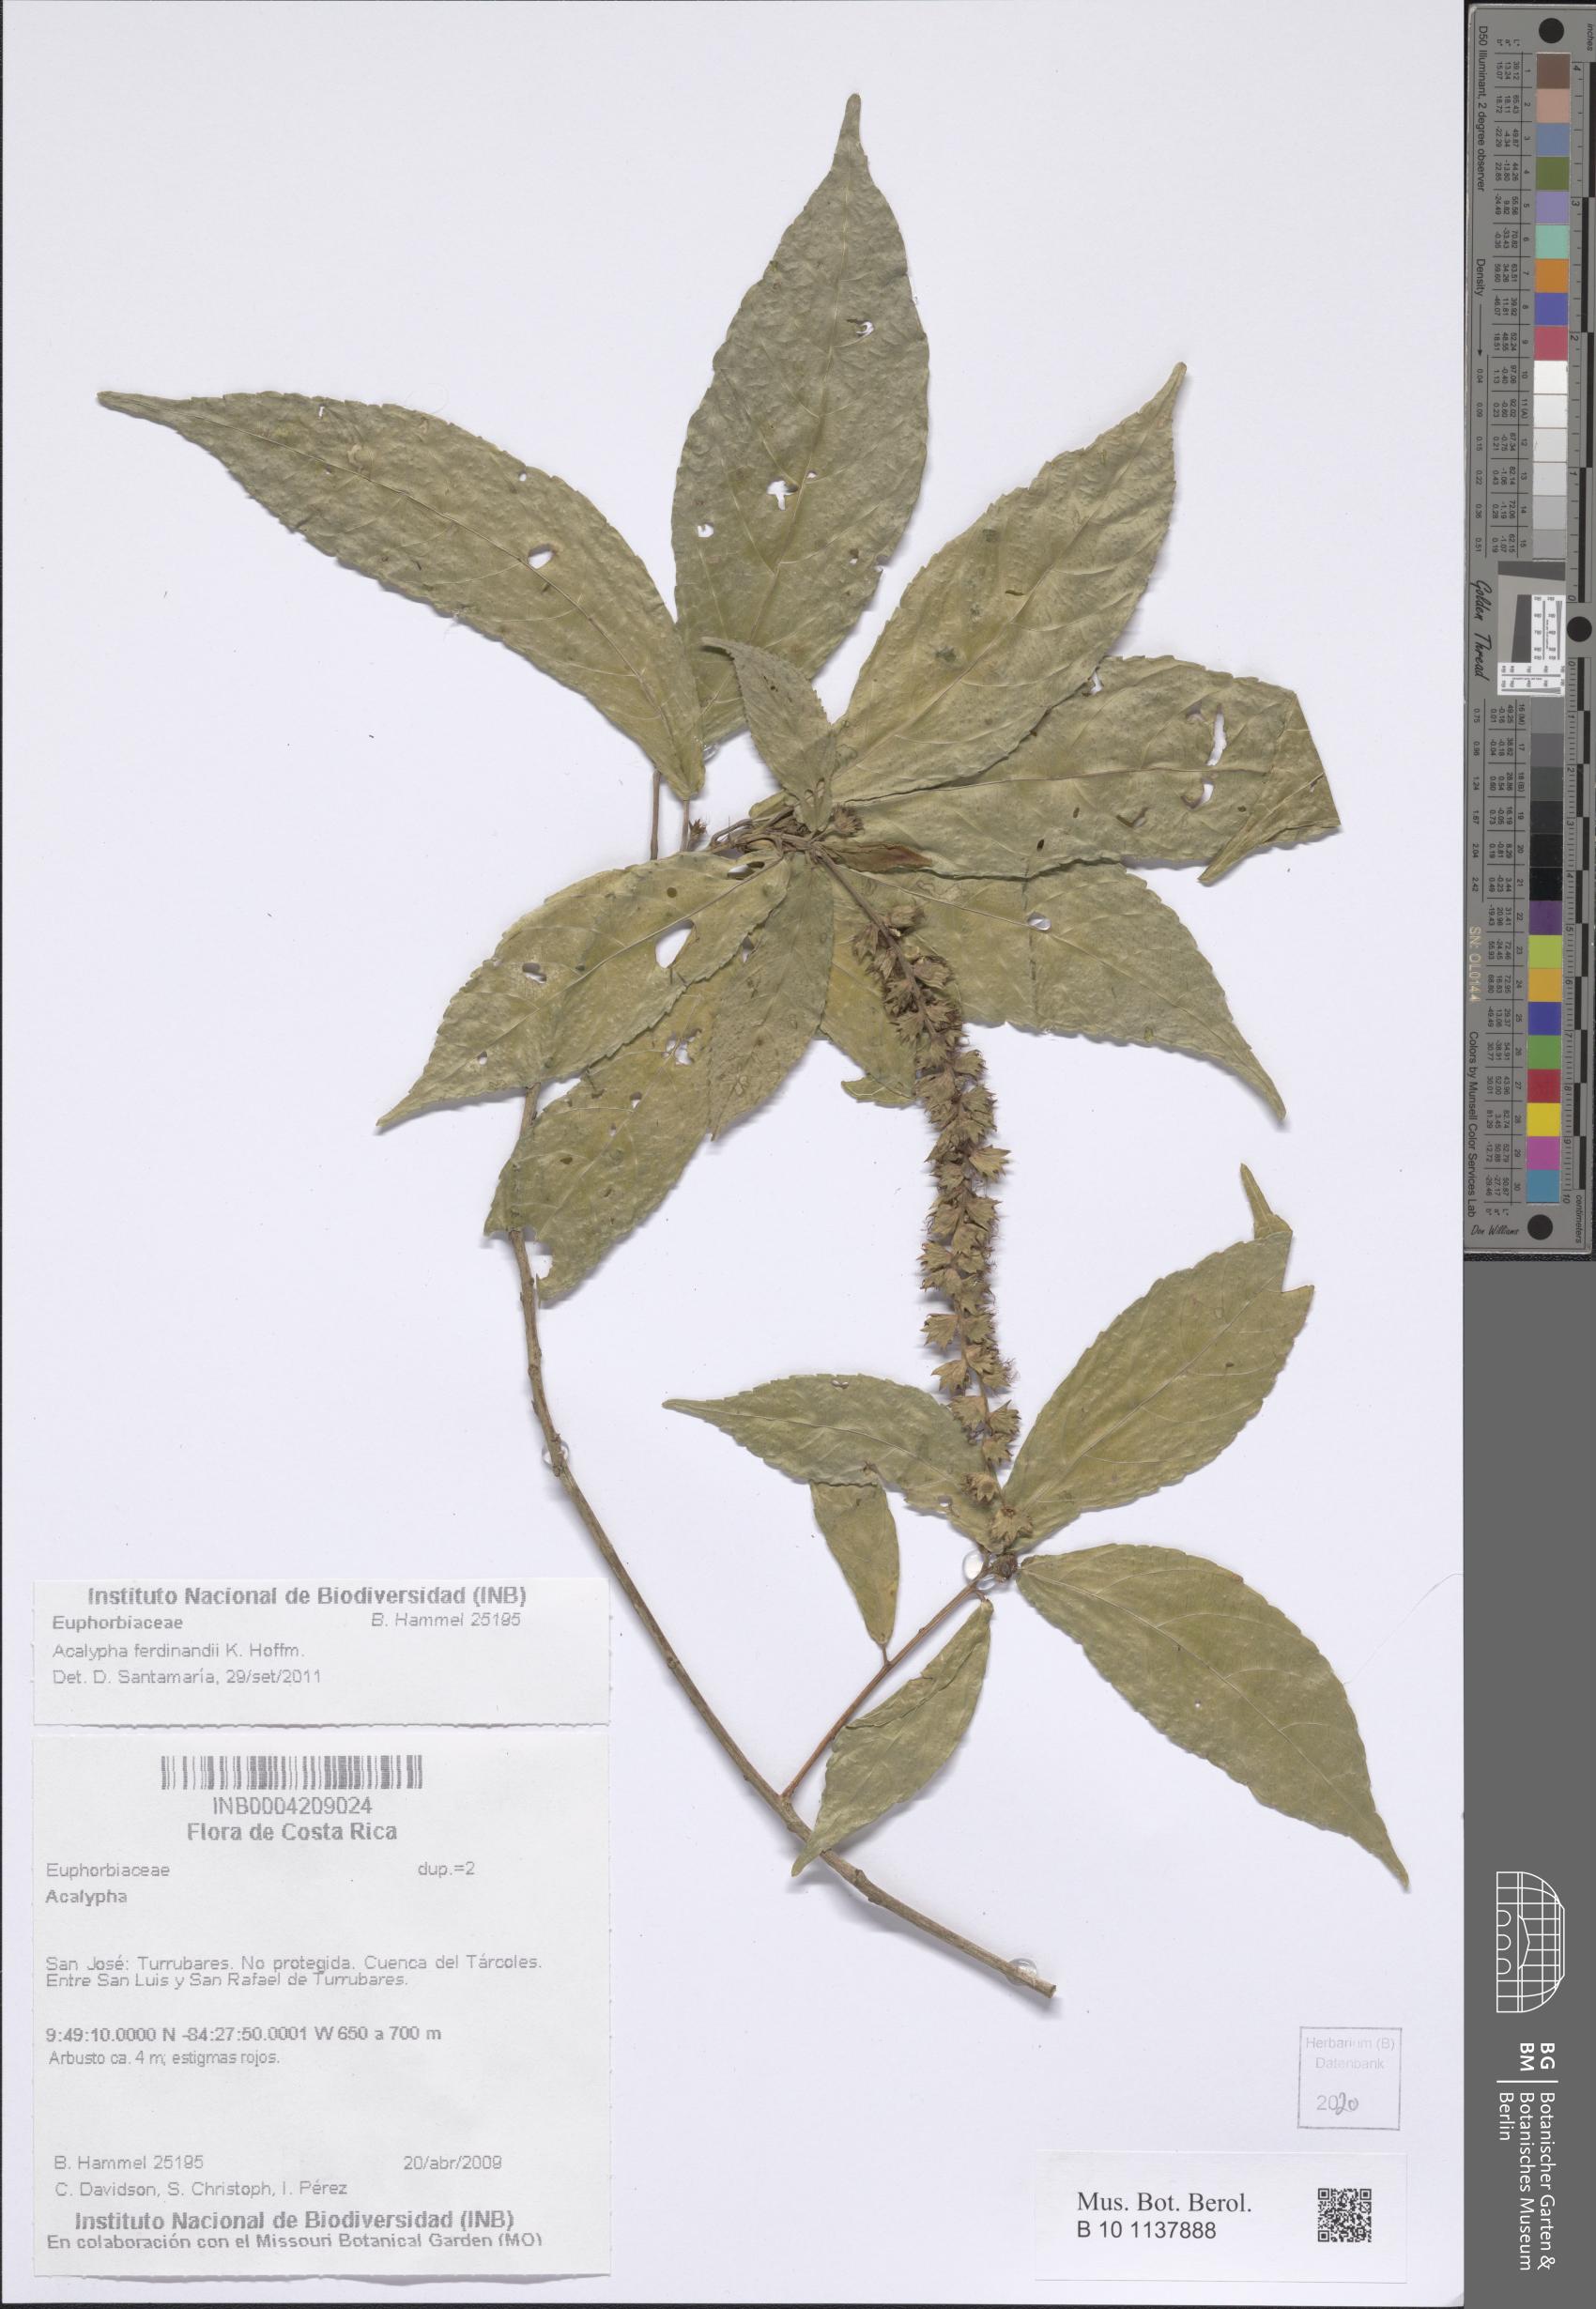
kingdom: Plantae
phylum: Tracheophyta
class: Magnoliopsida
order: Malpighiales
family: Euphorbiaceae
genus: Acalypha
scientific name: Acalypha ferdinandi
